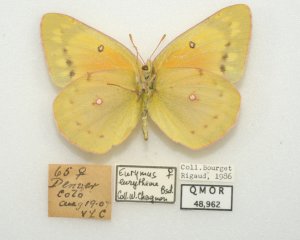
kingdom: Animalia
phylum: Arthropoda
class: Insecta
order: Lepidoptera
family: Pieridae
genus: Colias
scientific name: Colias eurytheme
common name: Orange Sulphur
